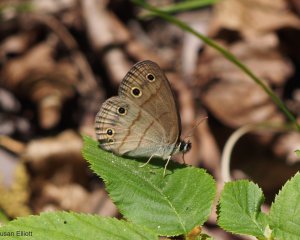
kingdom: Animalia
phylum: Arthropoda
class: Insecta
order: Lepidoptera
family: Nymphalidae
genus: Euptychia
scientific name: Euptychia cymela
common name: Little Wood Satyr
